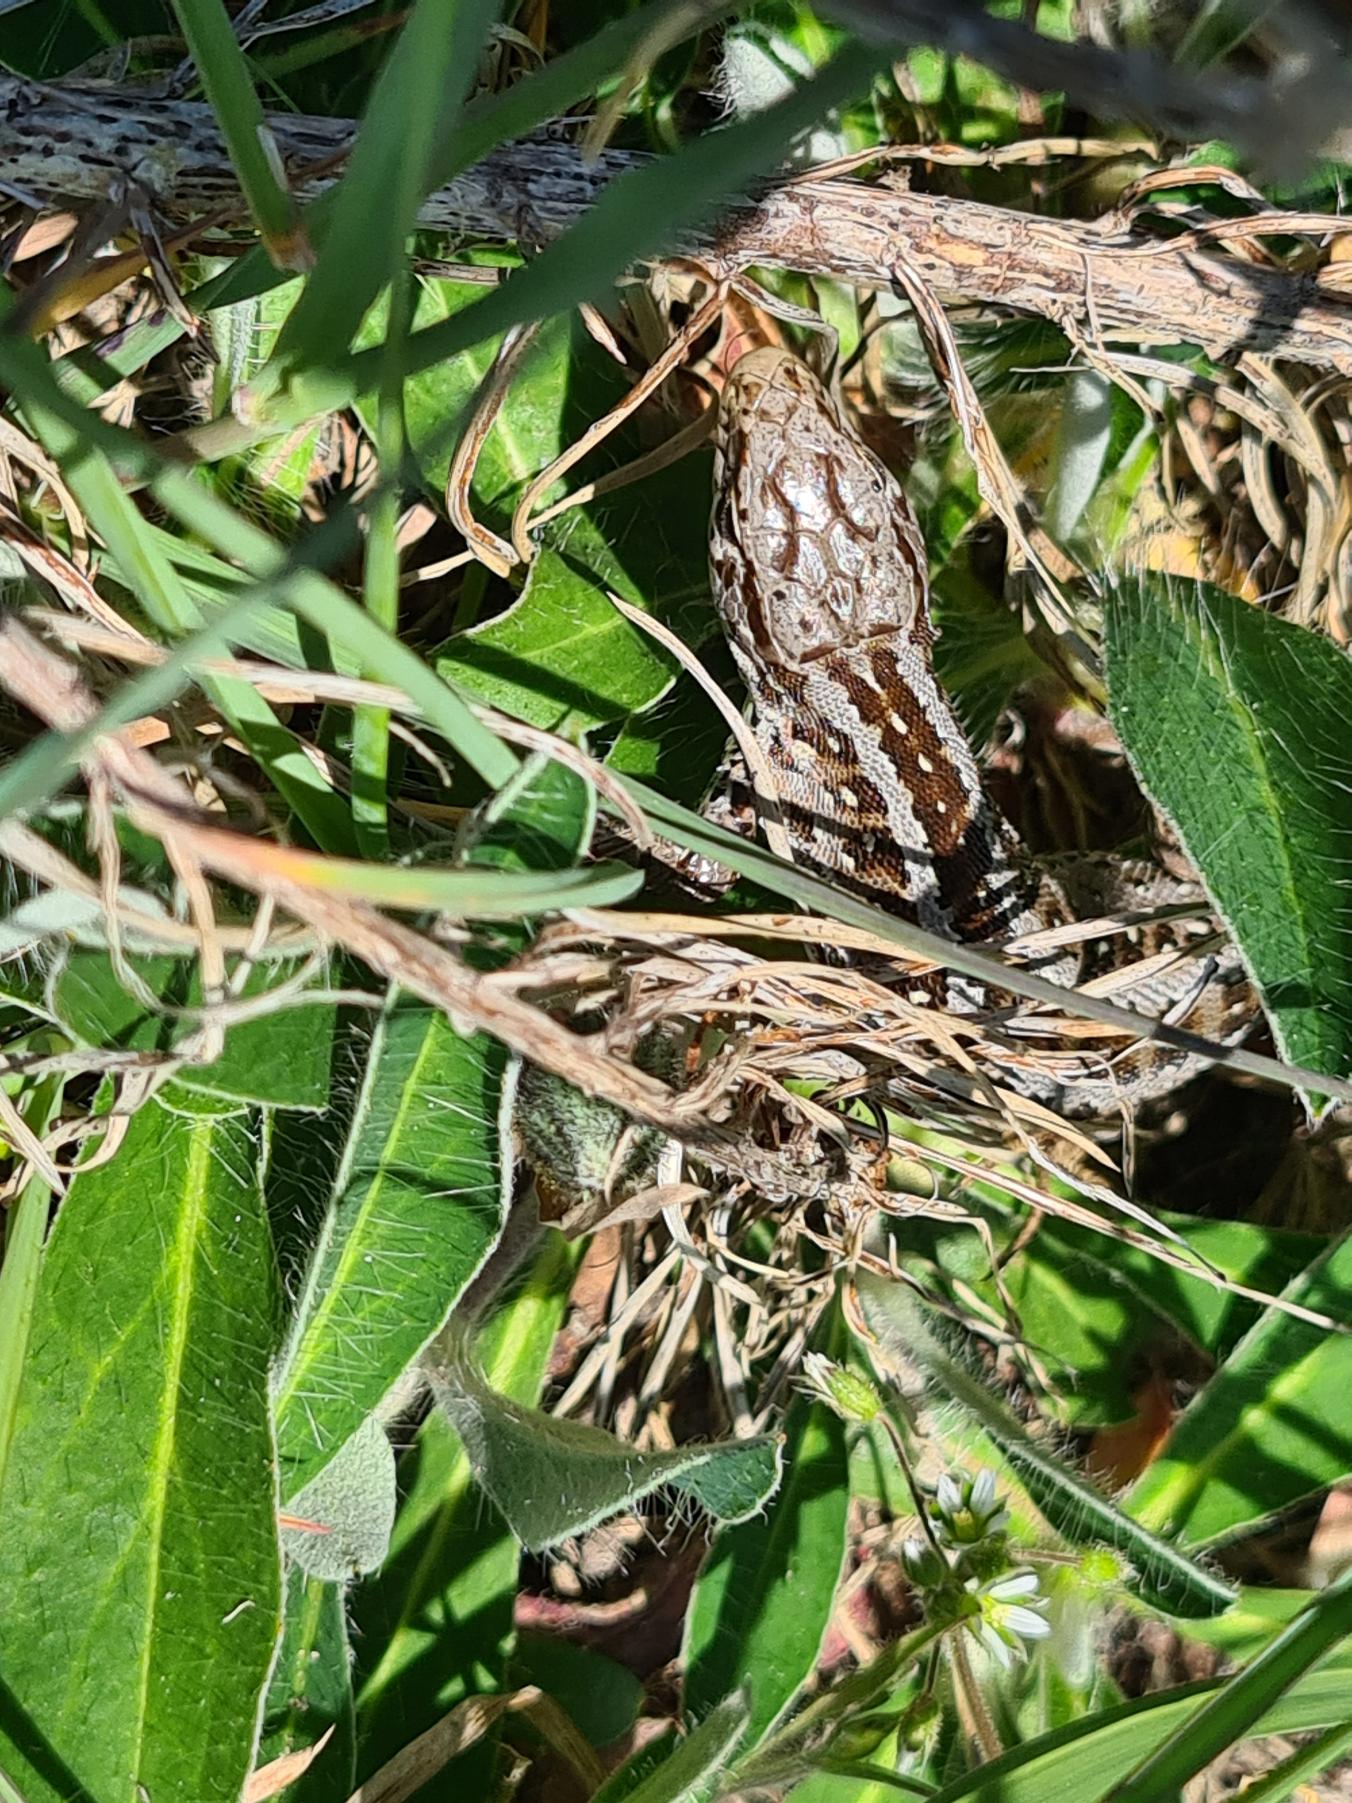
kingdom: Animalia
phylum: Chordata
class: Squamata
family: Lacertidae
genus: Lacerta
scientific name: Lacerta agilis
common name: Markfirben
